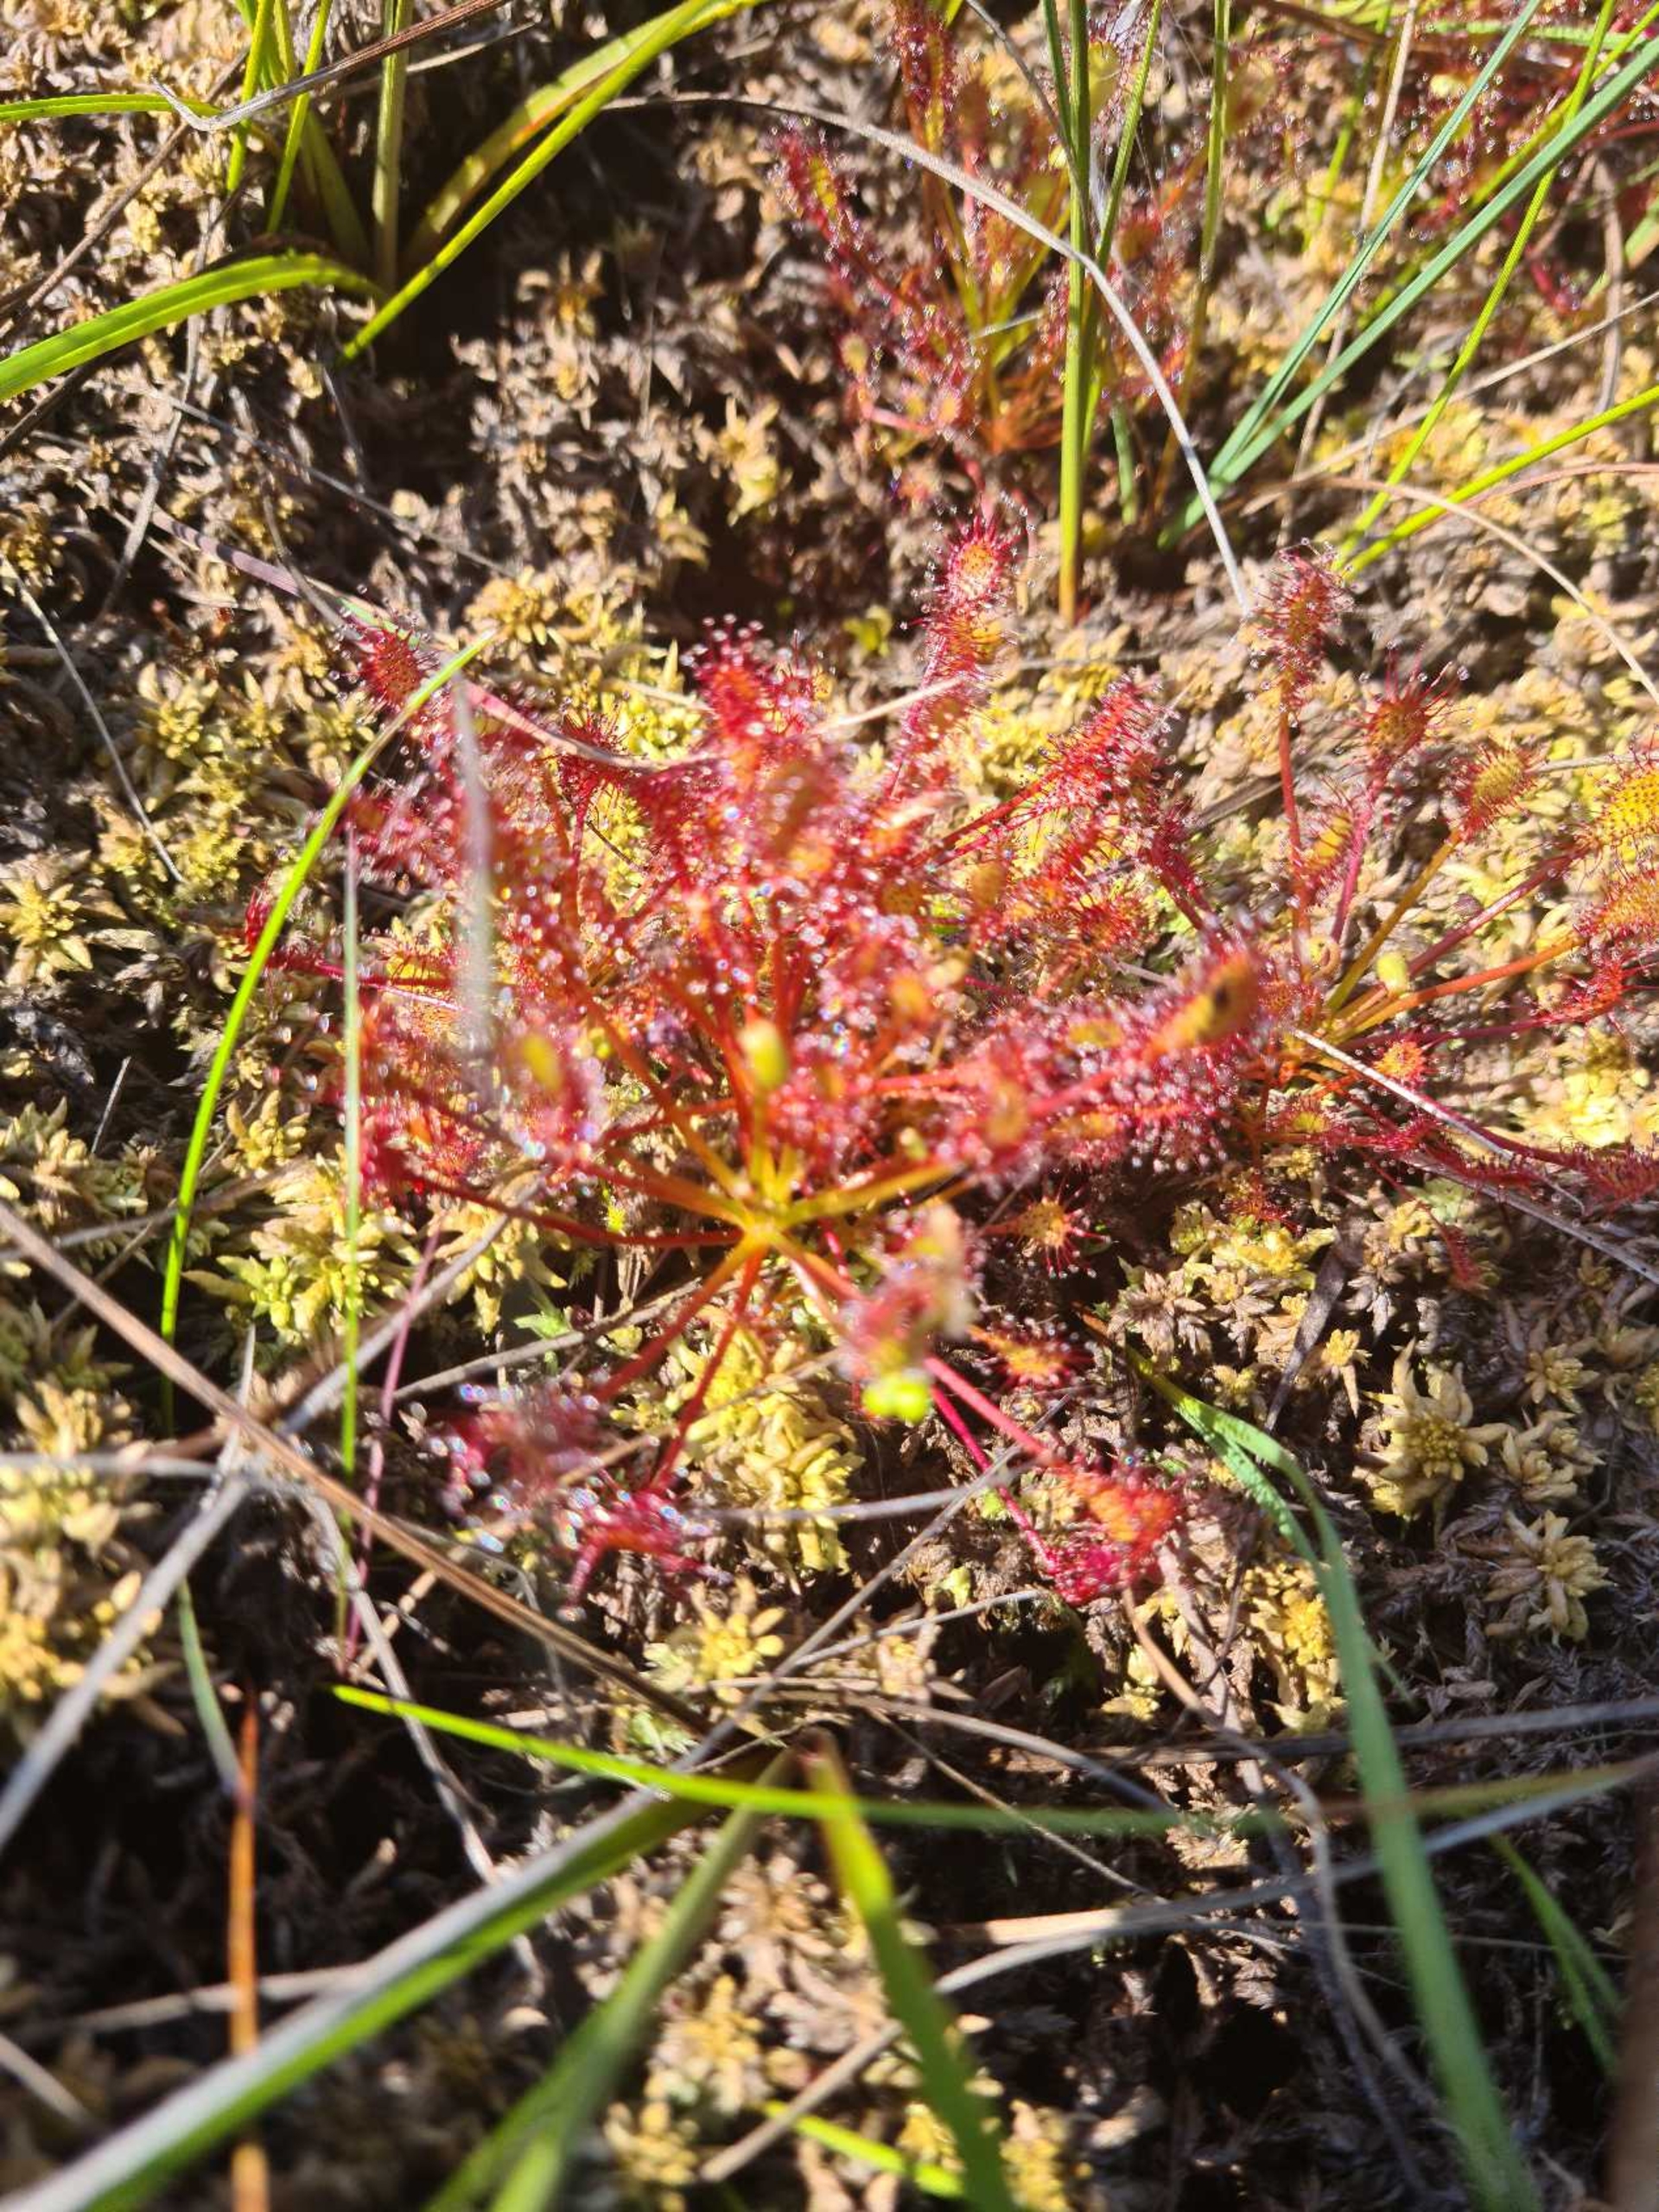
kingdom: Plantae
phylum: Tracheophyta
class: Magnoliopsida
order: Caryophyllales
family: Droseraceae
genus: Drosera
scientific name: Drosera intermedia
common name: Liden soldug
